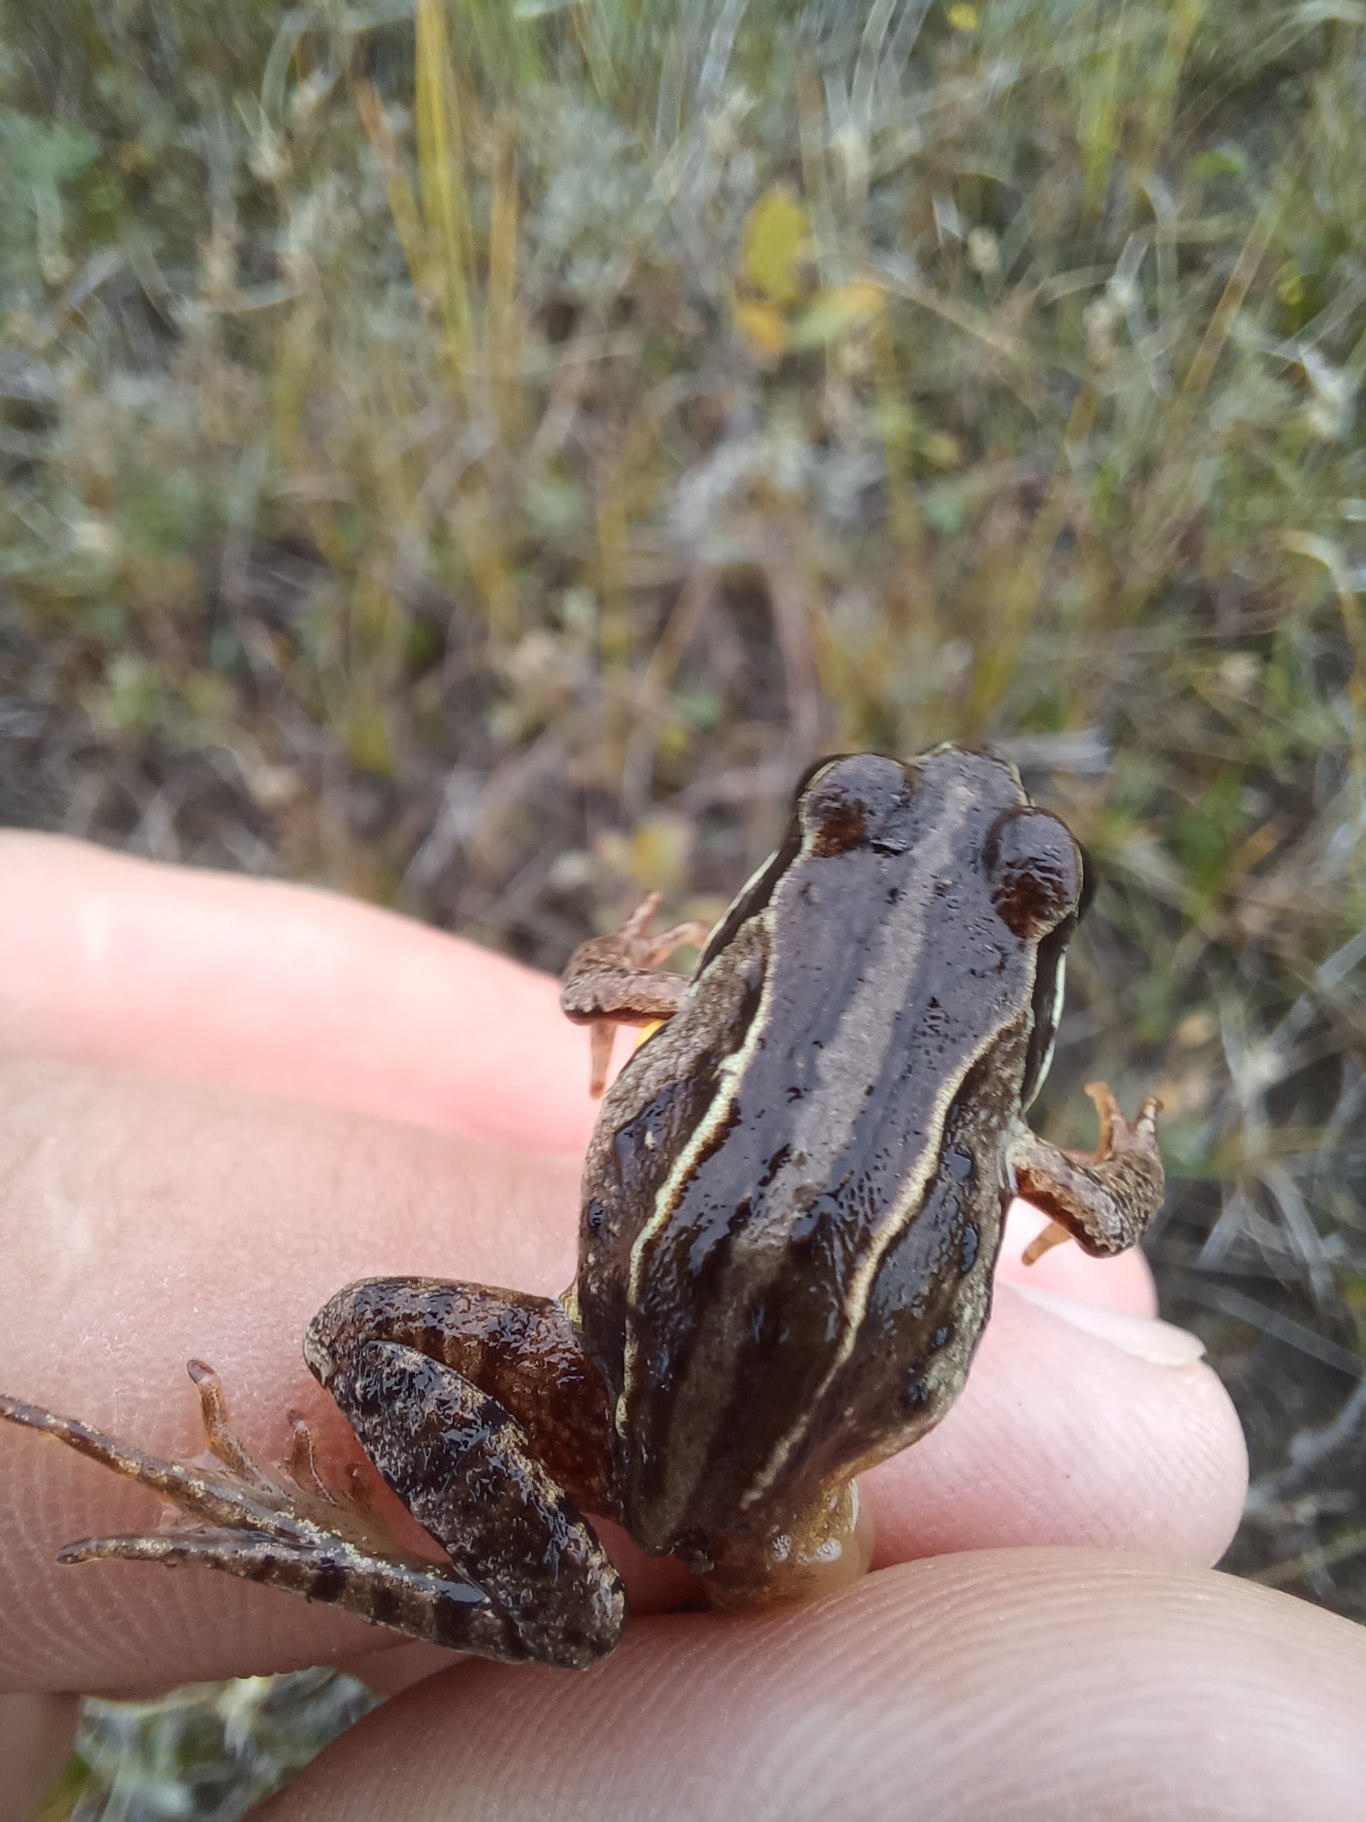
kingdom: Animalia
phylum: Chordata
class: Amphibia
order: Anura
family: Ranidae
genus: Rana
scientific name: Rana arvalis
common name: Spidssnudet frø
